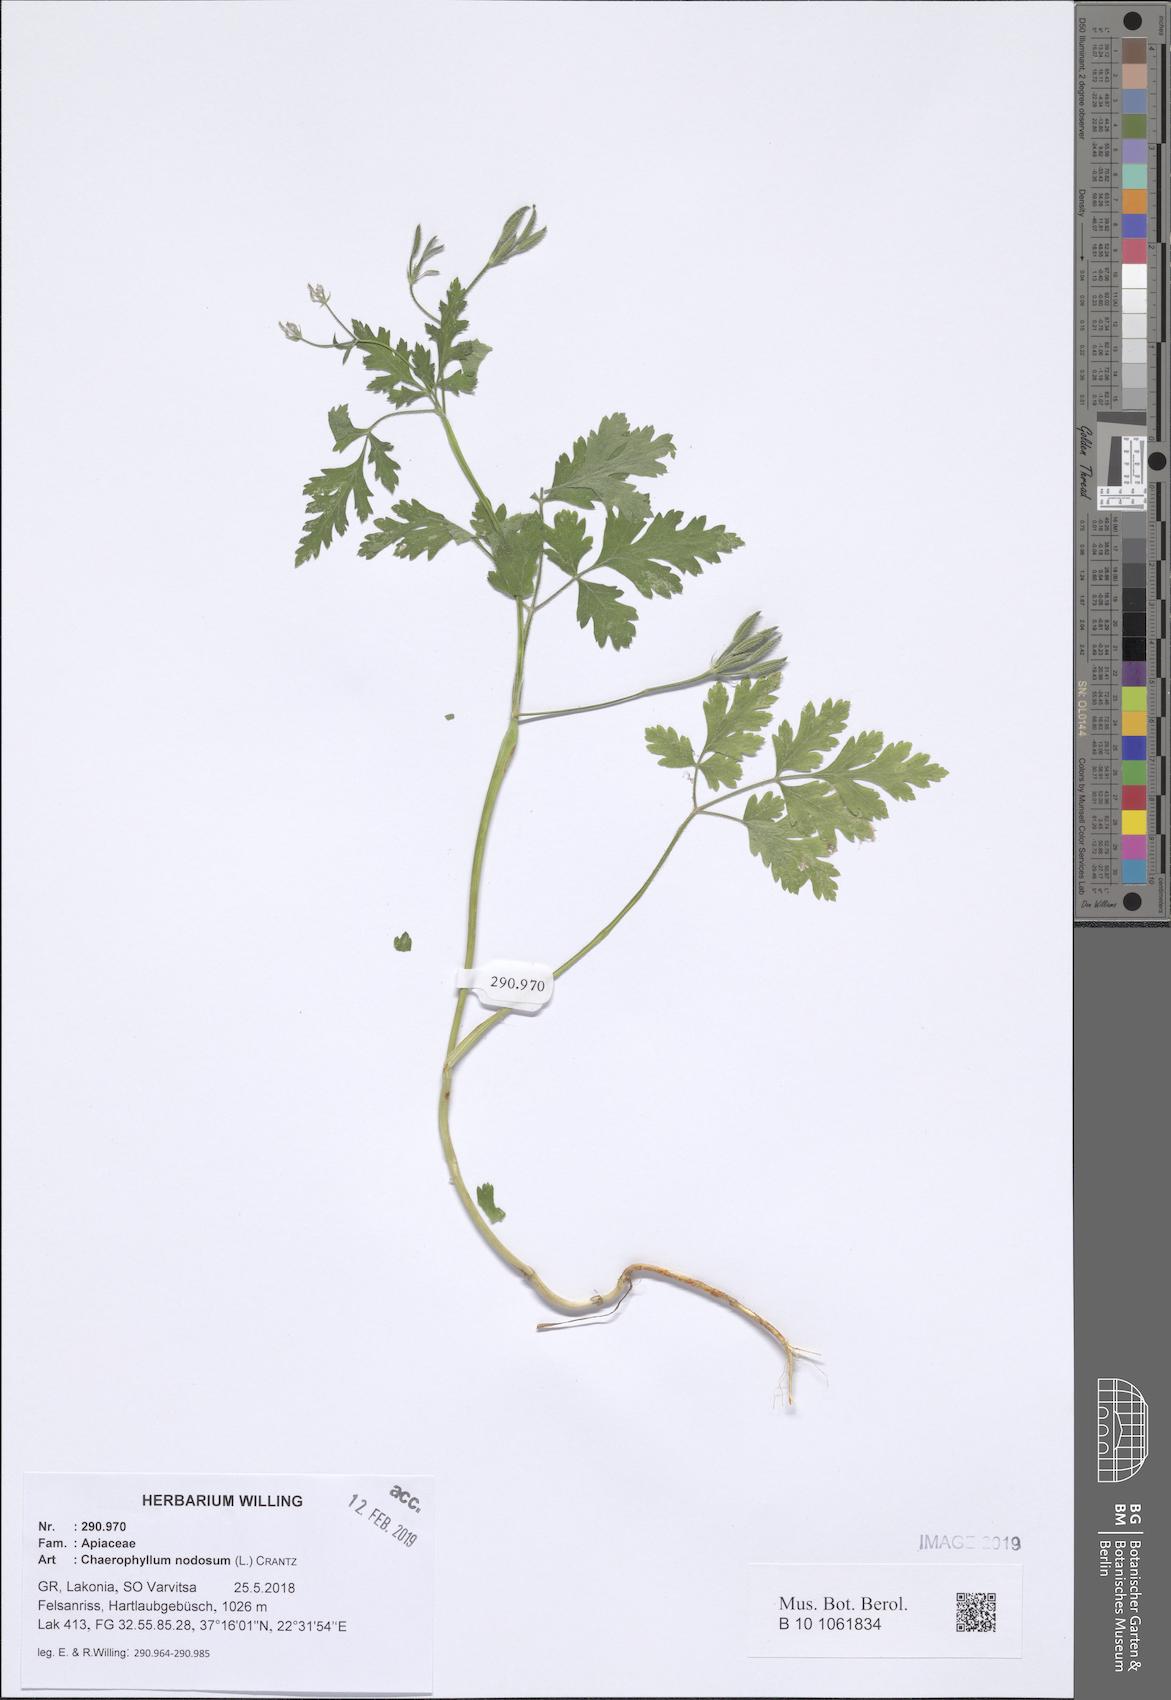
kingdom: Plantae
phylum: Tracheophyta
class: Magnoliopsida
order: Apiales
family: Apiaceae
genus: Chaerophyllum
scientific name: Chaerophyllum nodosum
